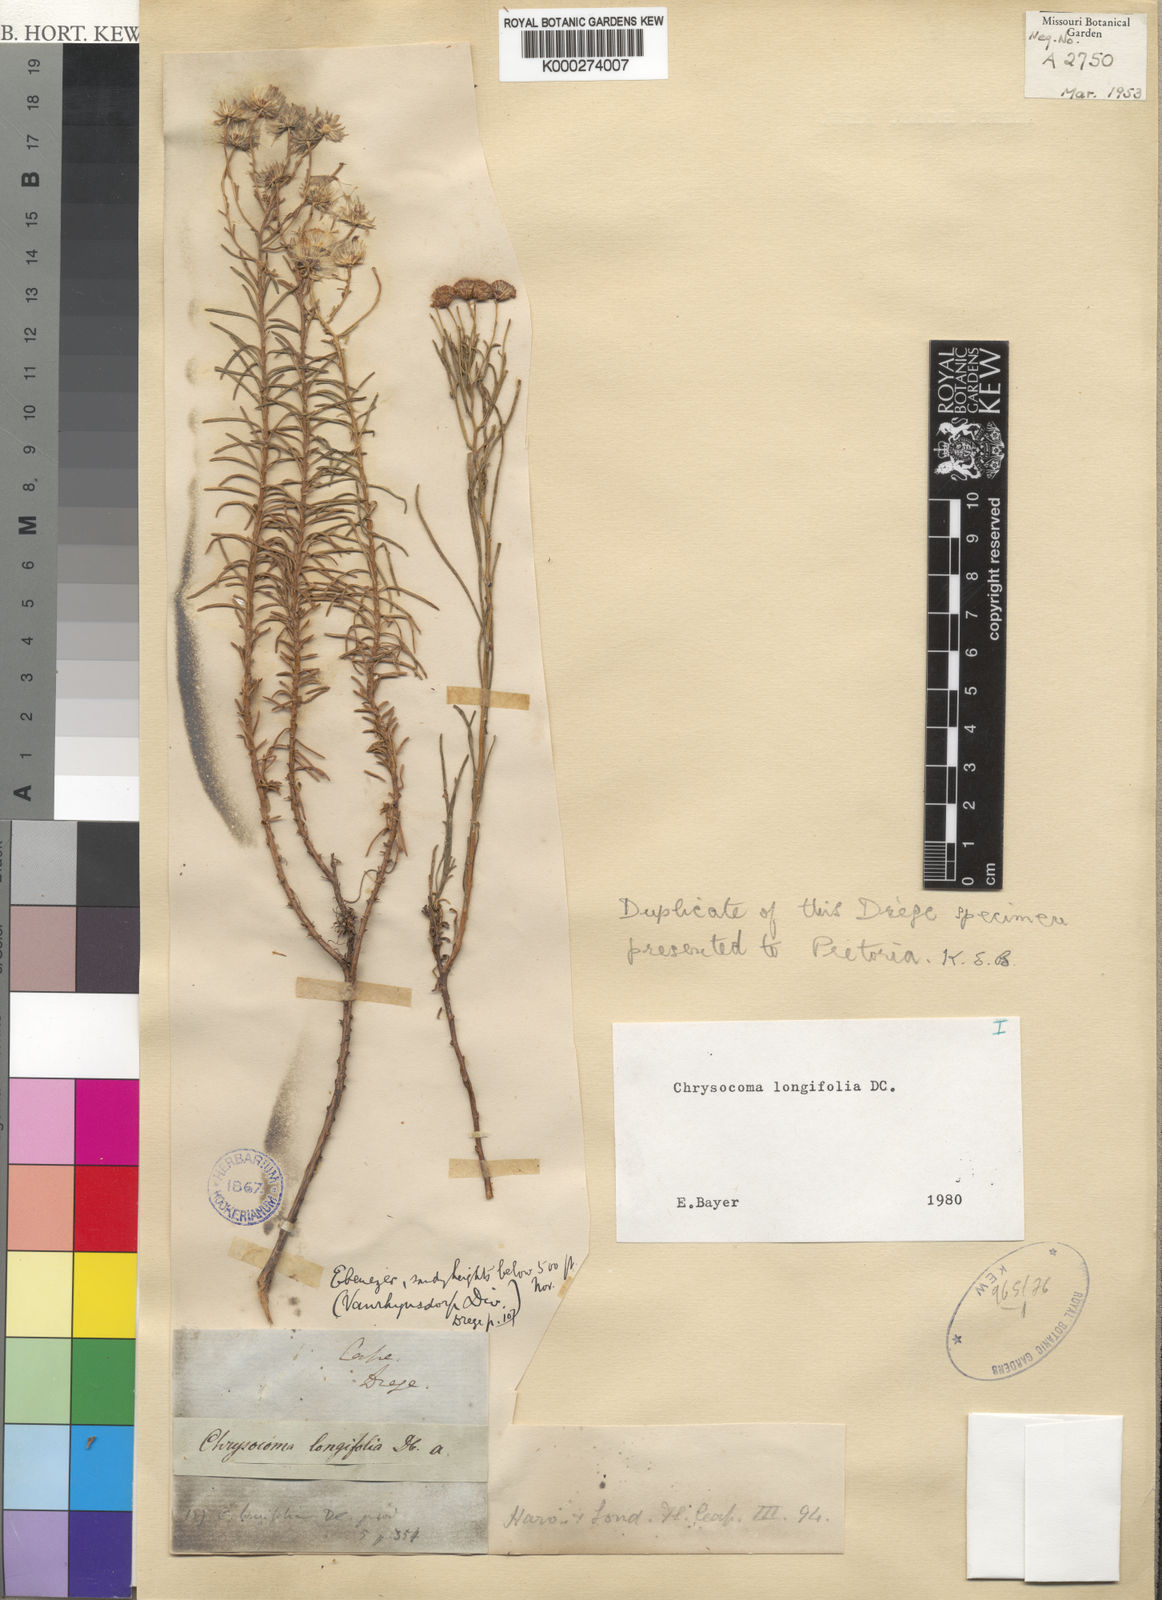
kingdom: Plantae
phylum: Tracheophyta
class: Magnoliopsida
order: Asterales
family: Asteraceae
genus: Chrysocoma
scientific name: Chrysocoma longifolia
